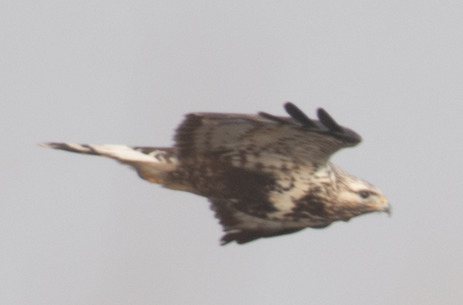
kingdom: Animalia
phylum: Chordata
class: Aves
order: Accipitriformes
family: Accipitridae
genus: Buteo
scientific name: Buteo lagopus
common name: Fjeldvåge
